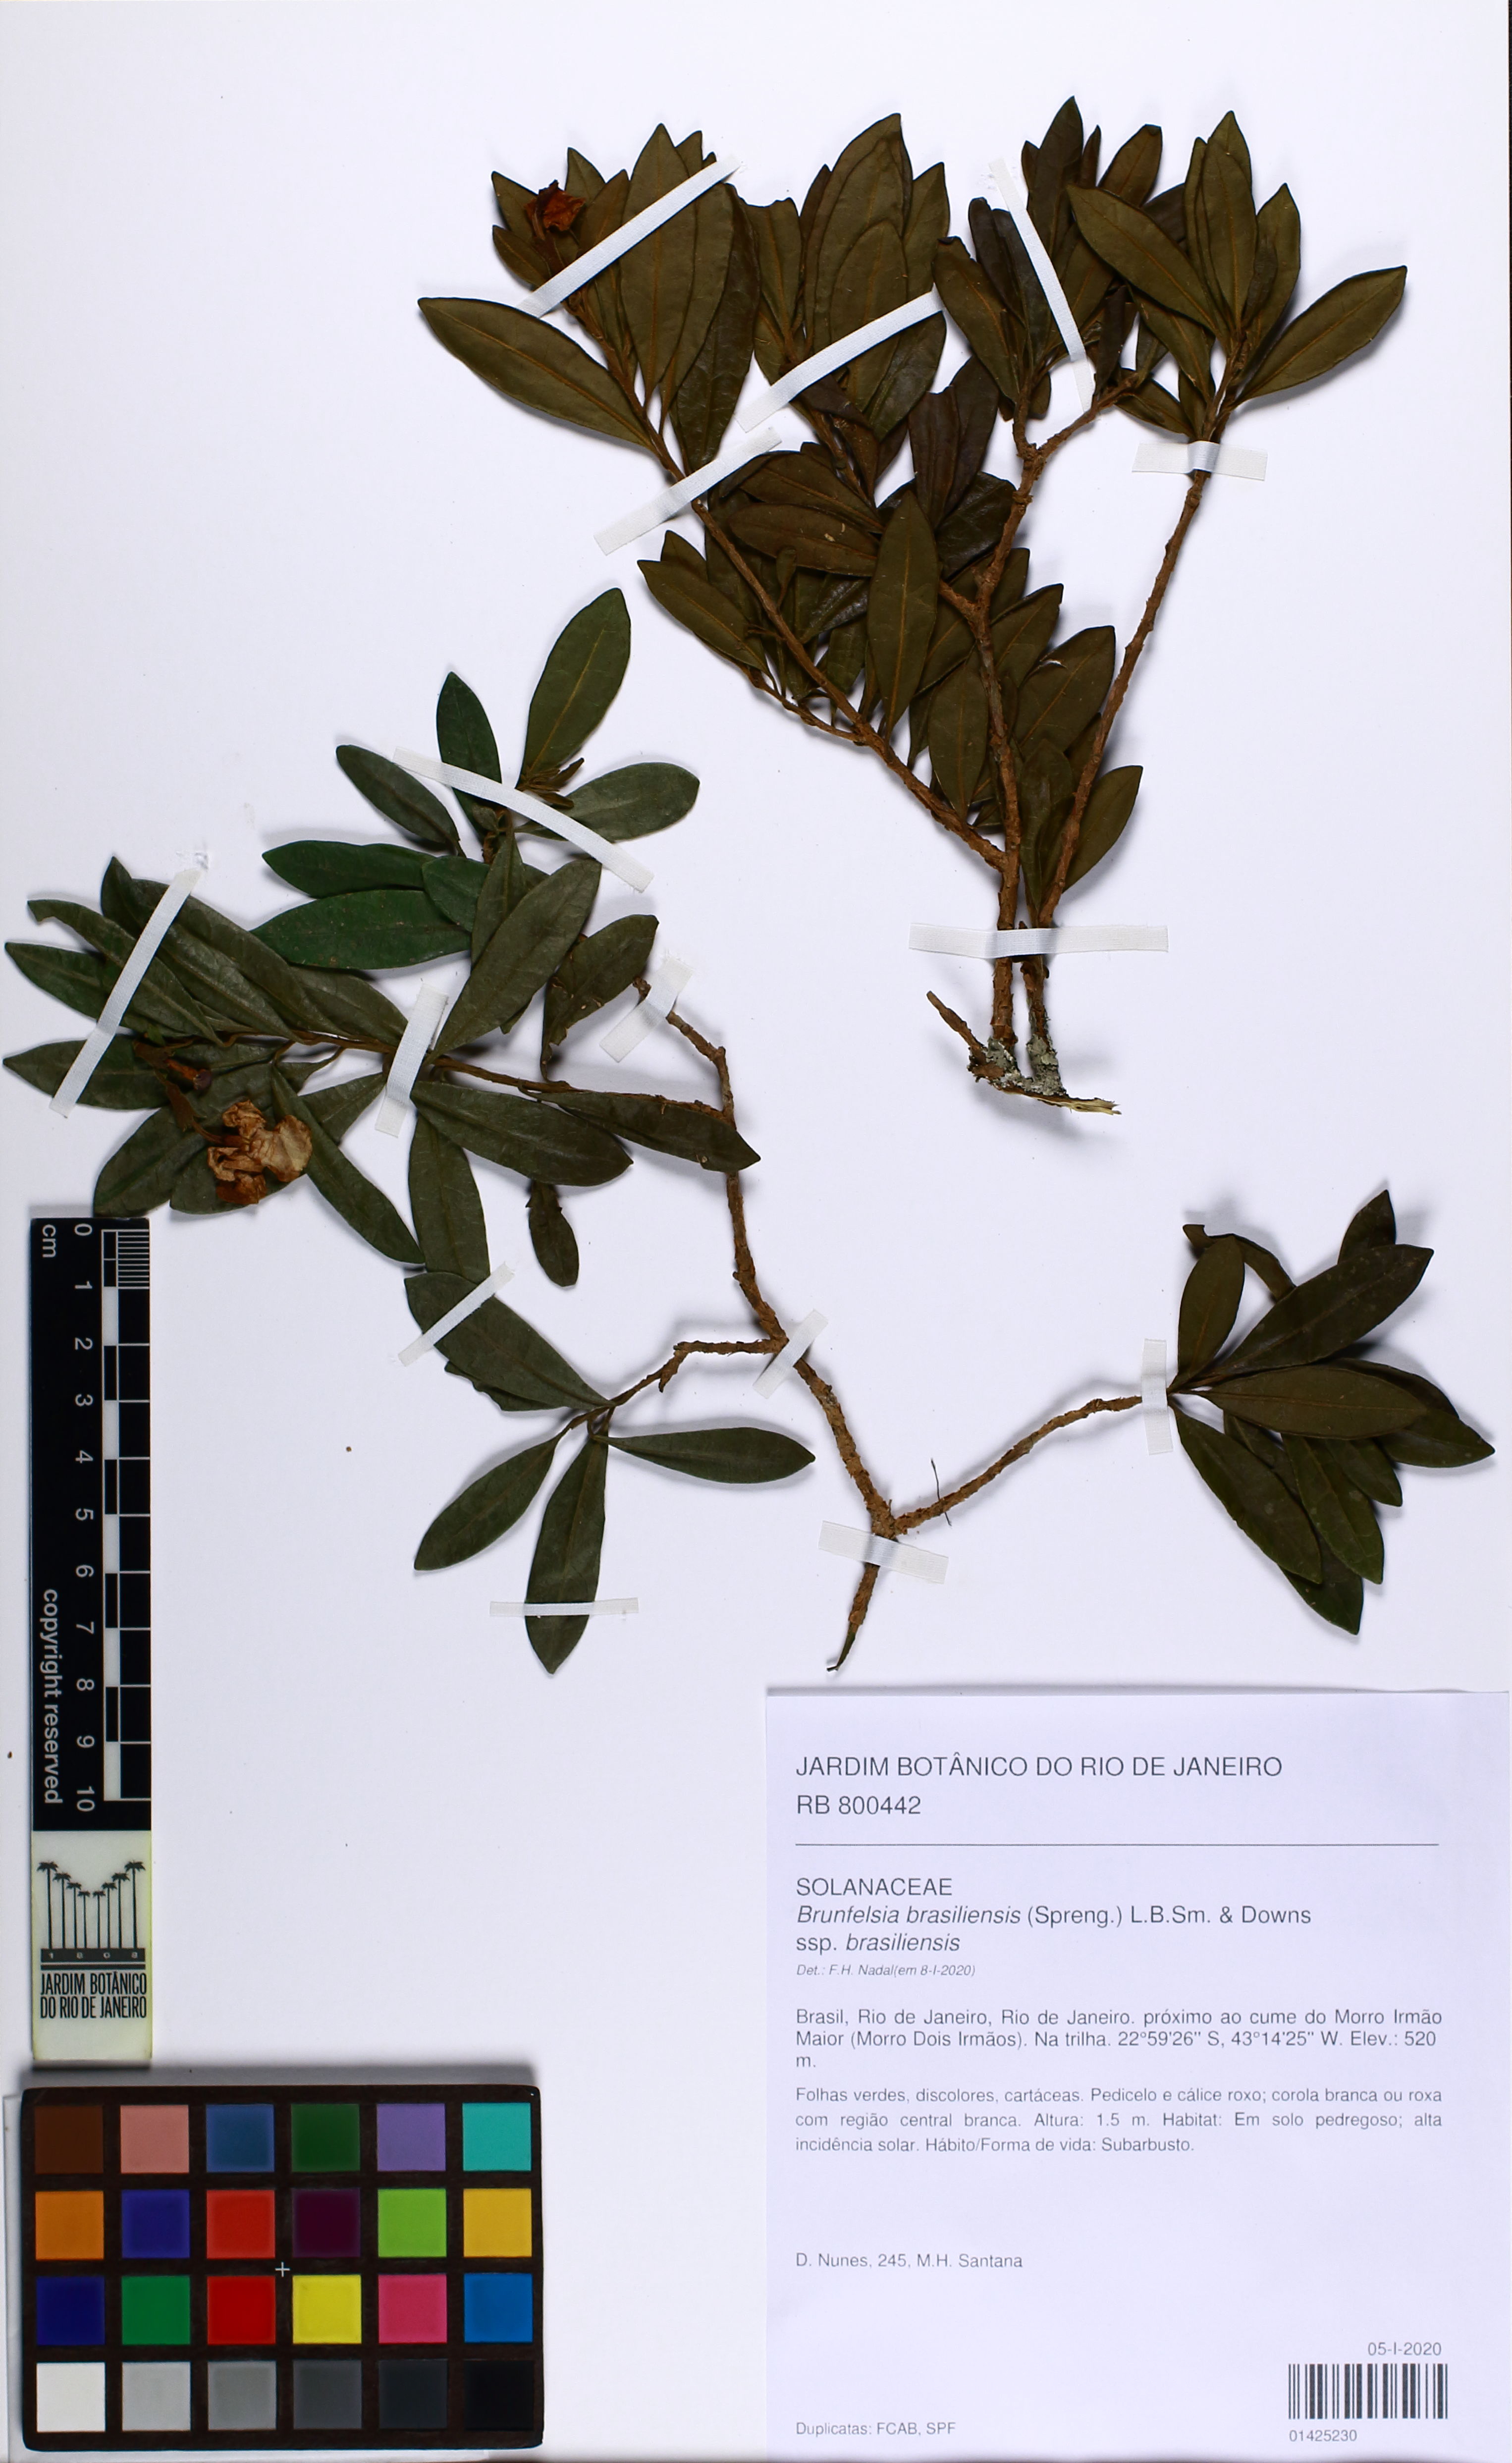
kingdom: Plantae
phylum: Tracheophyta
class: Magnoliopsida
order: Solanales
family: Solanaceae
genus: Brunfelsia
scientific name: Brunfelsia brasiliensis
